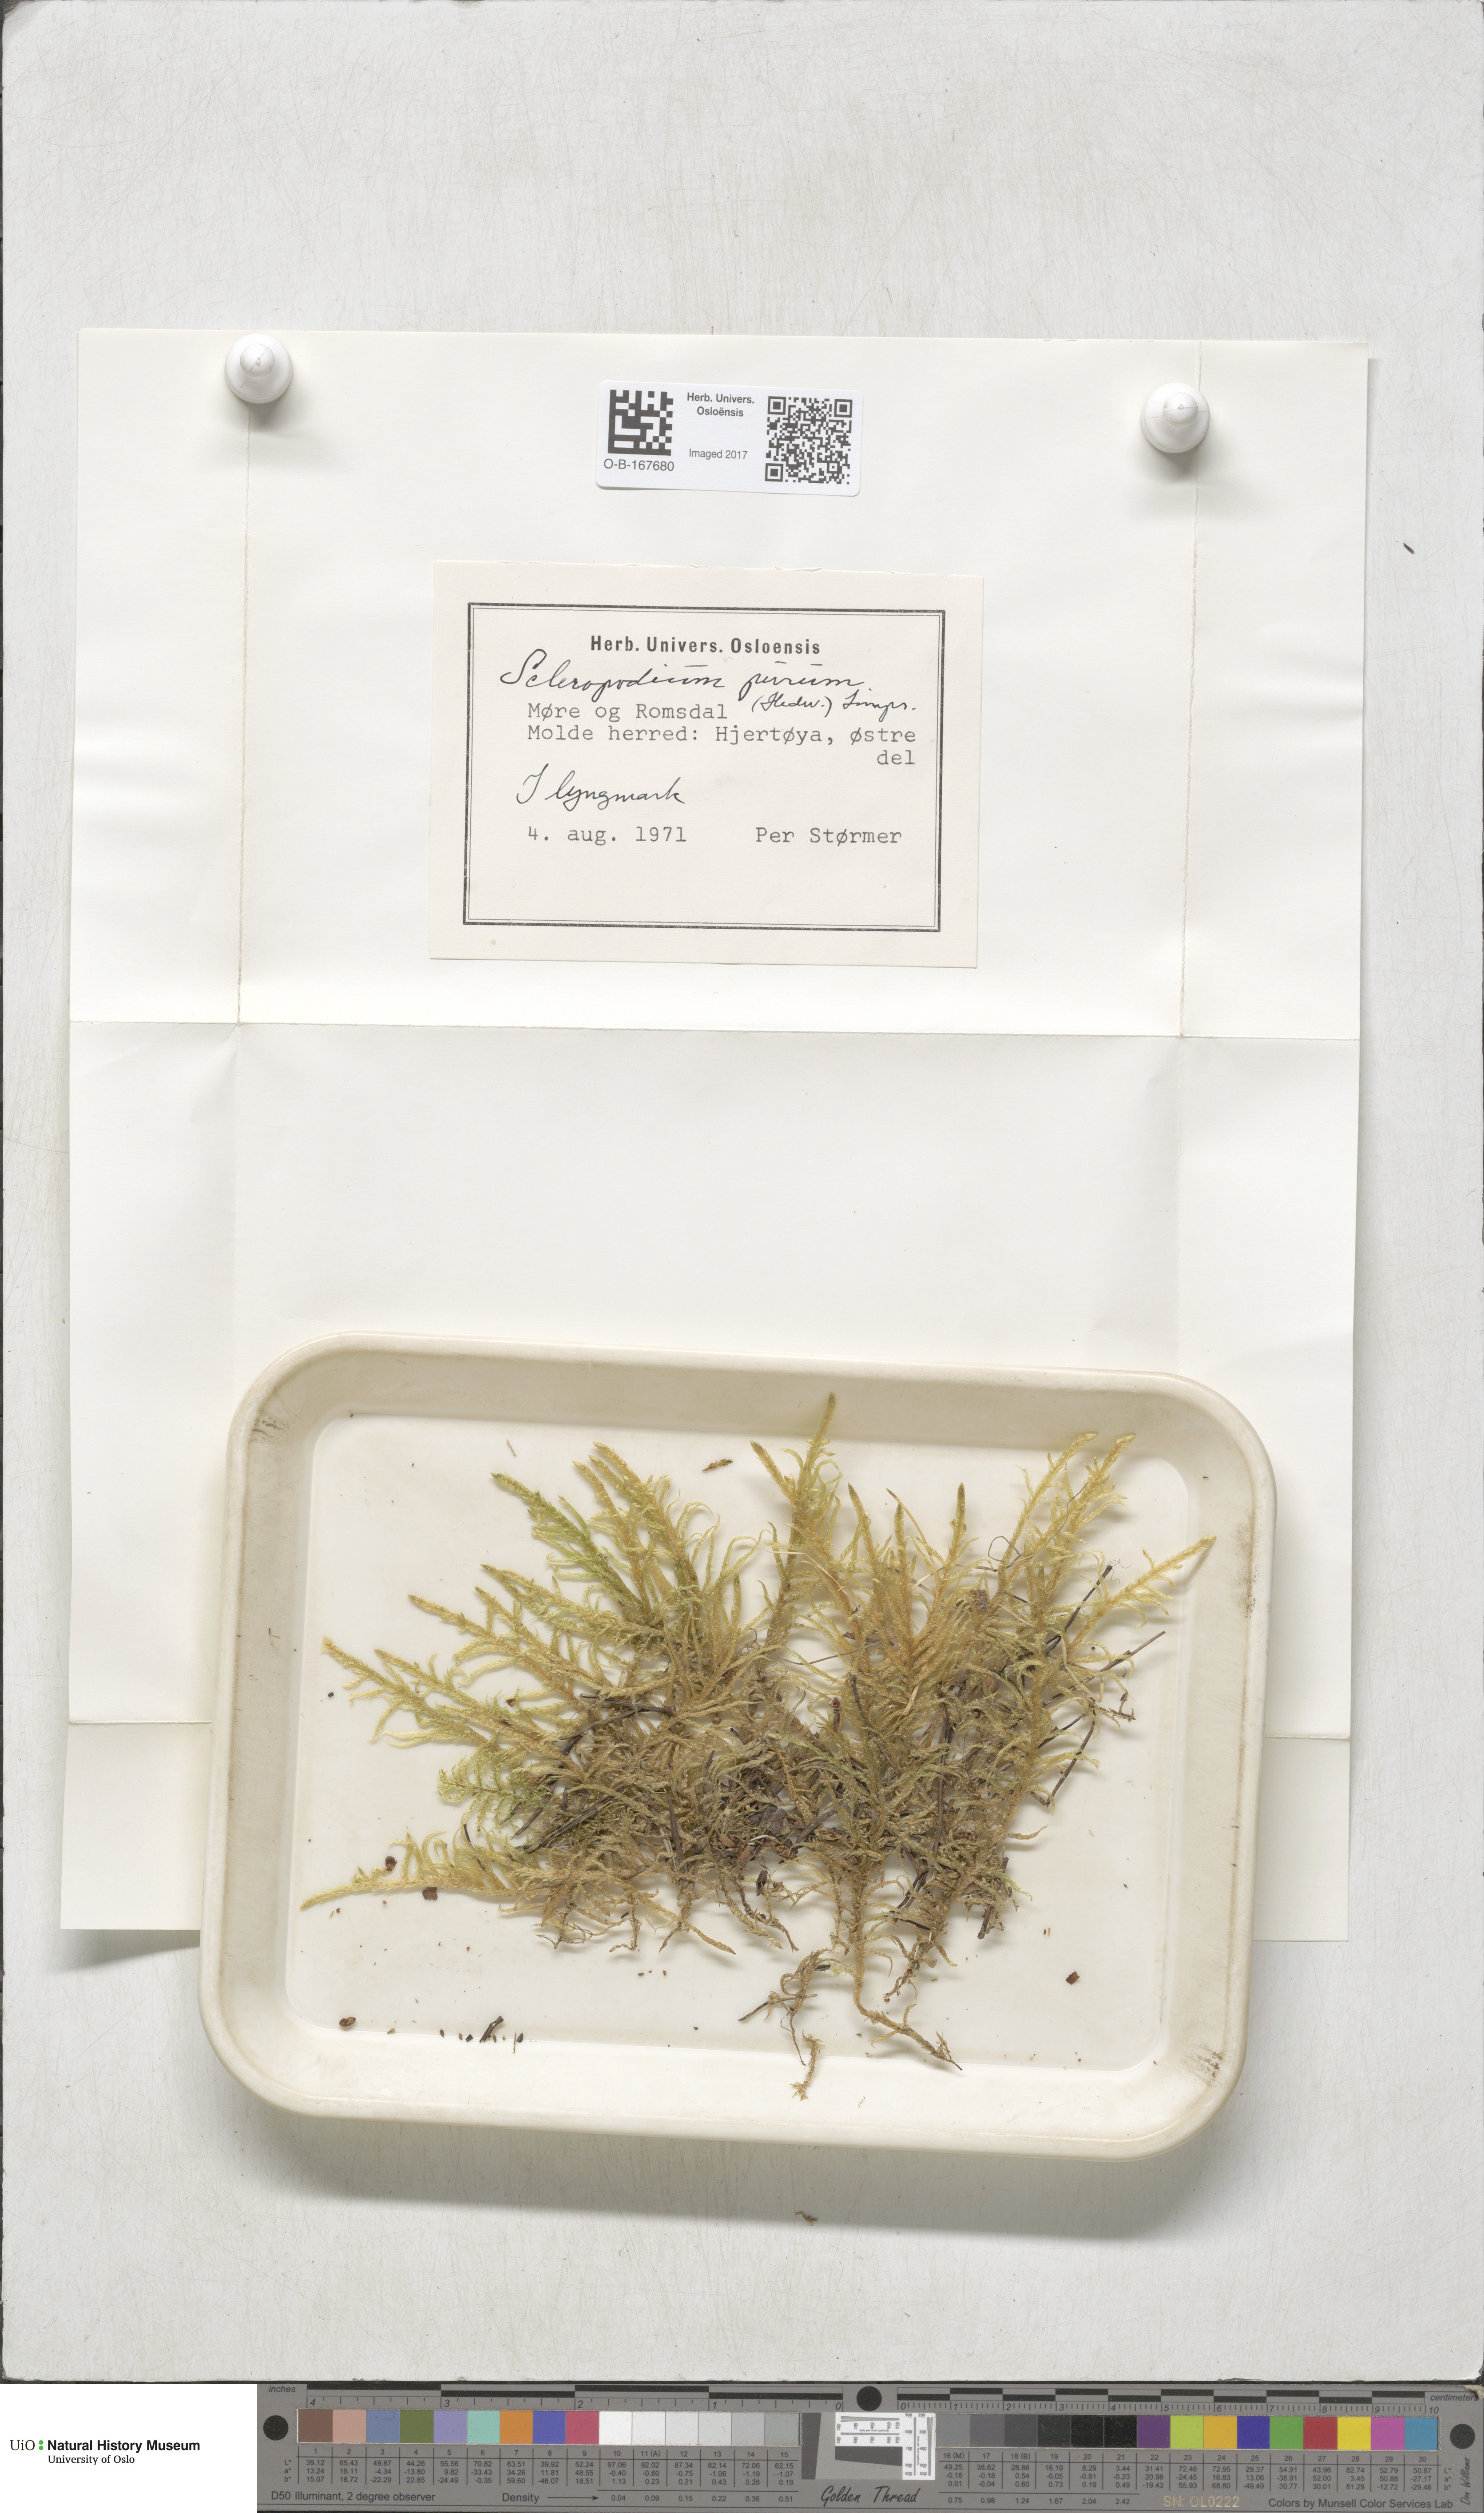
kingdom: Plantae
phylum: Bryophyta
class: Bryopsida
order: Hypnales
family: Brachytheciaceae
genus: Pseudoscleropodium
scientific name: Pseudoscleropodium purum
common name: Neat feather-moss
